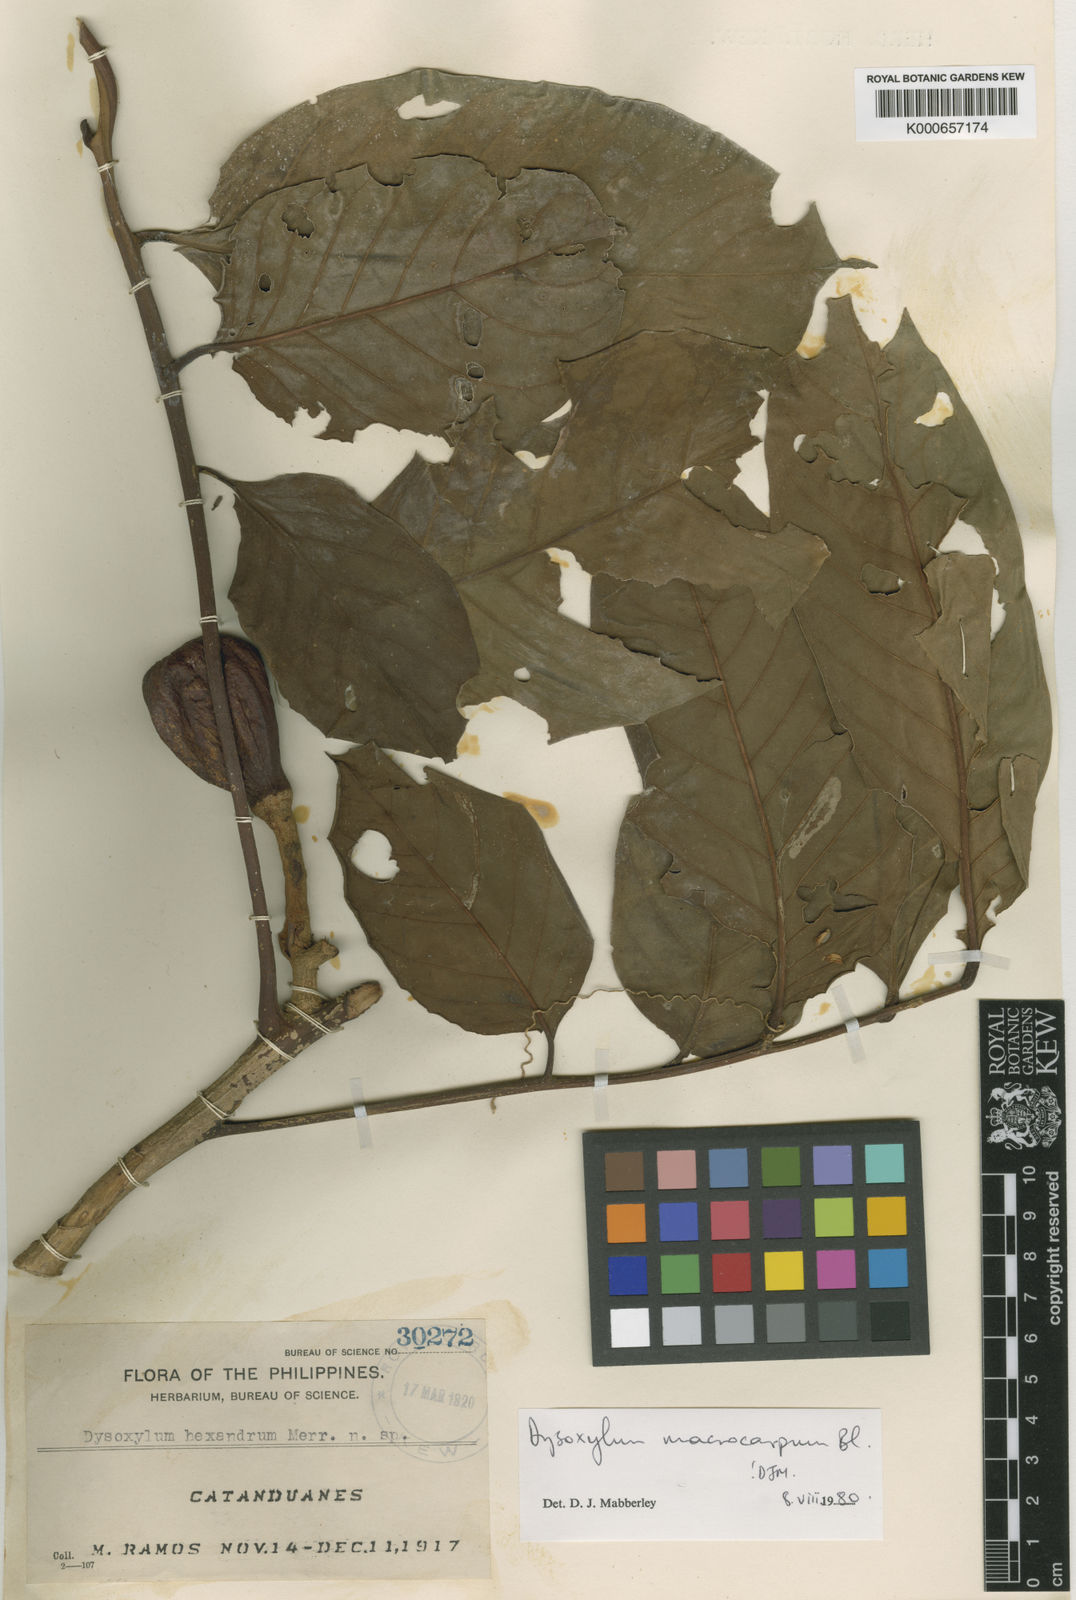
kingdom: Plantae
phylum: Tracheophyta
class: Magnoliopsida
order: Sapindales
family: Meliaceae
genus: Dysoxylum
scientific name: Dysoxylum macrocarpum
